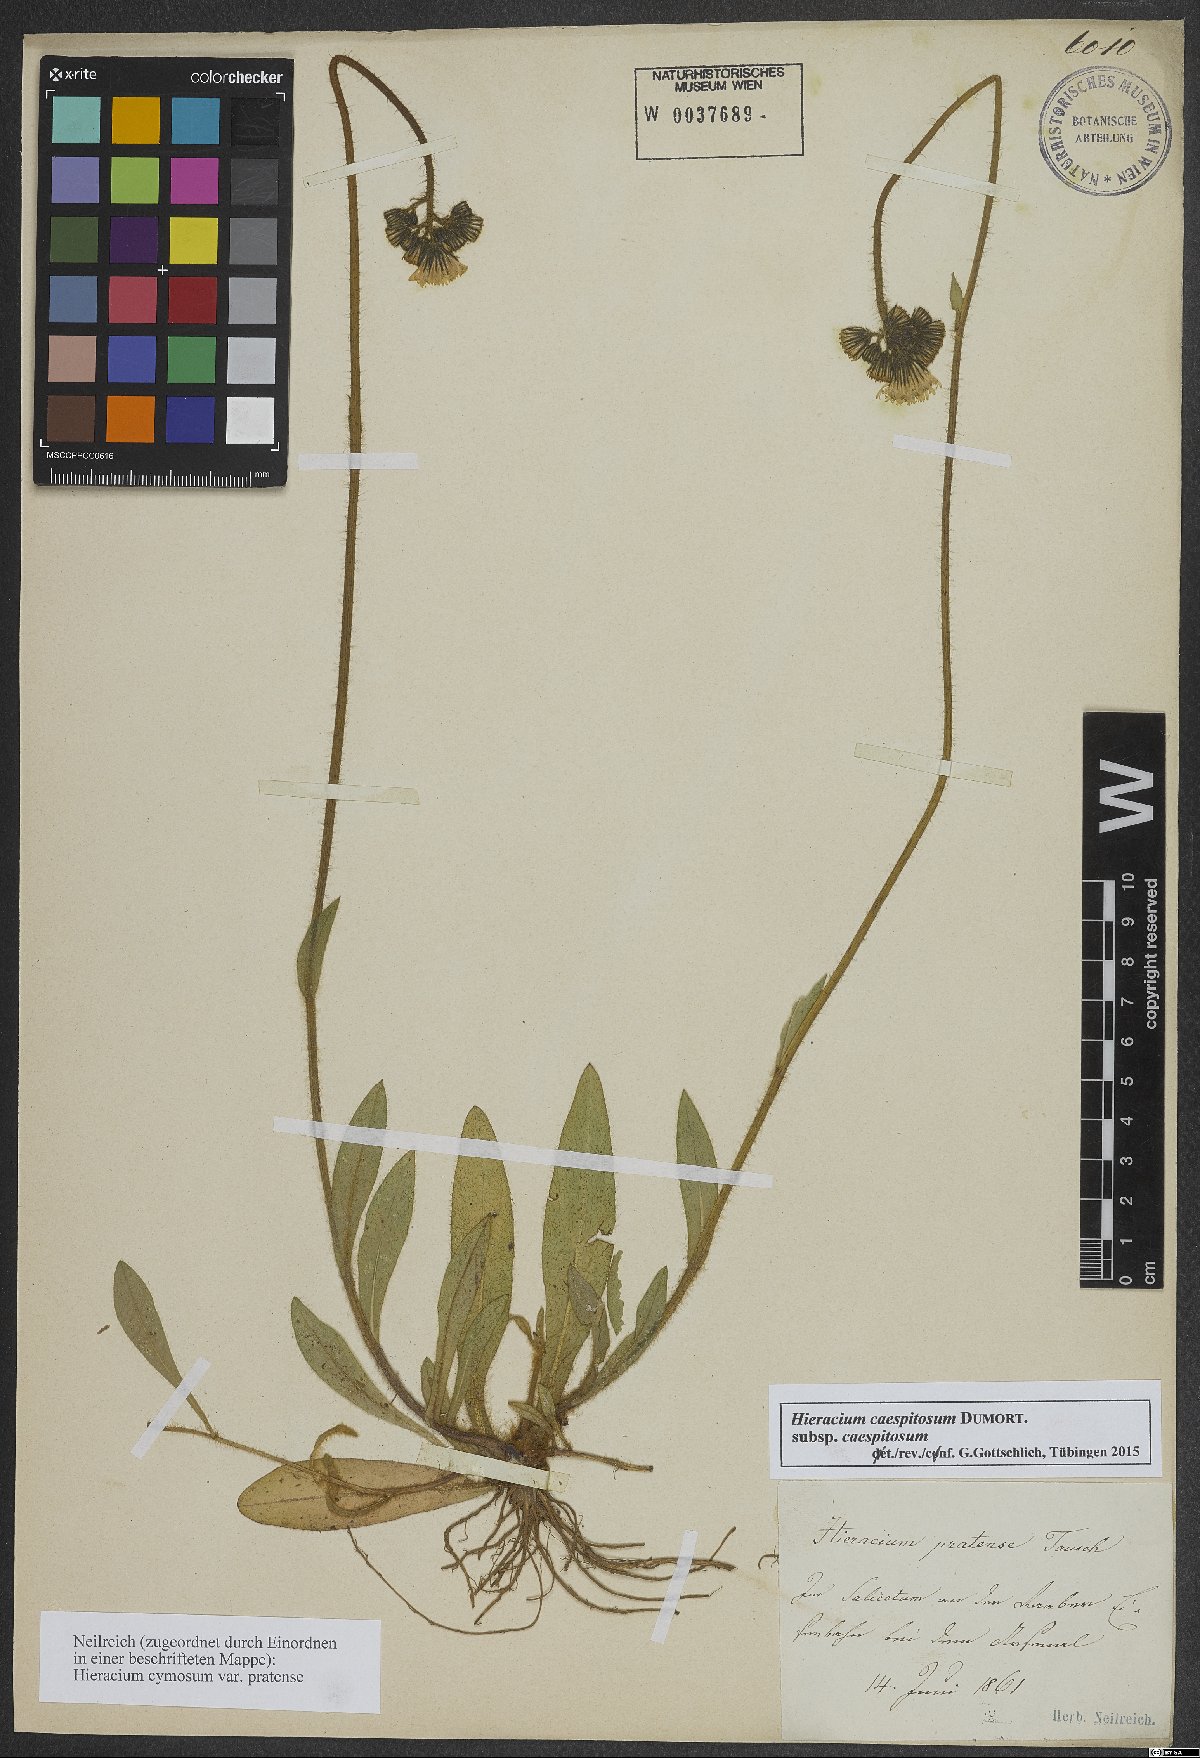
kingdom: Plantae
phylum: Tracheophyta
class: Magnoliopsida
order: Asterales
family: Asteraceae
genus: Pilosella
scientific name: Pilosella caespitosa
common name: Yellow fox-and-cubs
